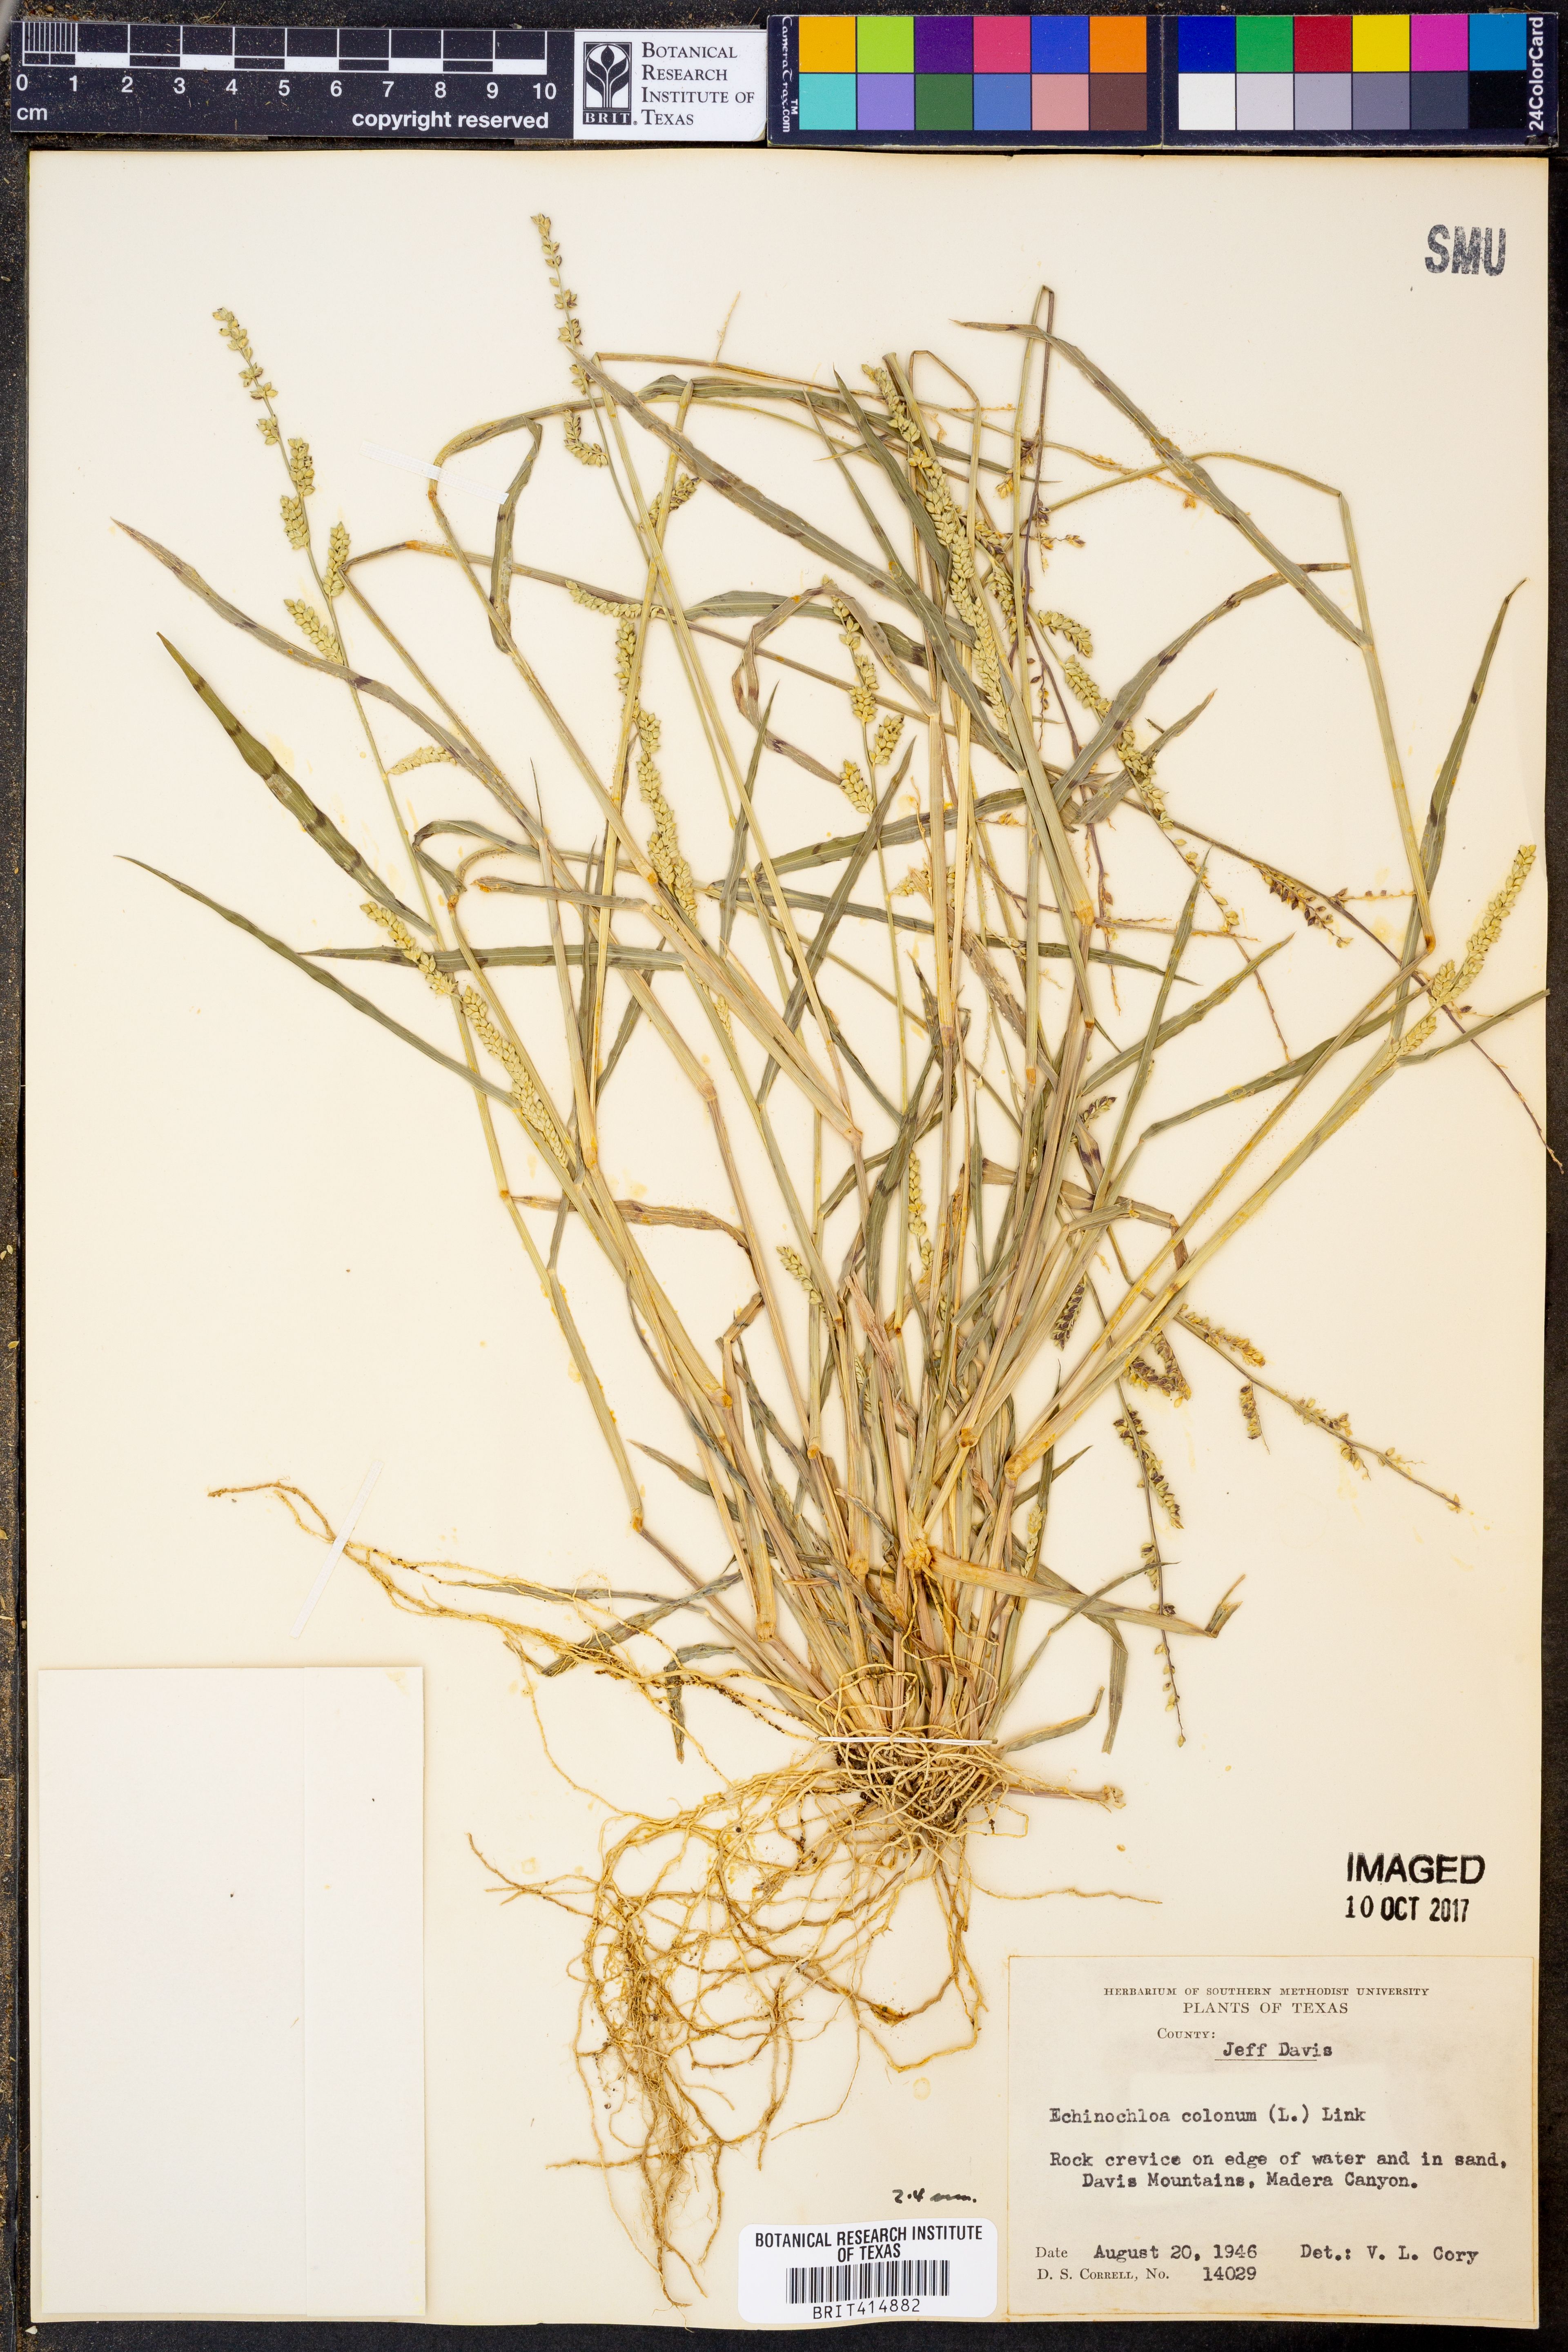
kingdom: Plantae
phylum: Tracheophyta
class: Liliopsida
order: Poales
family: Poaceae
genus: Echinochloa
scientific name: Echinochloa colonum
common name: Jungle rice
